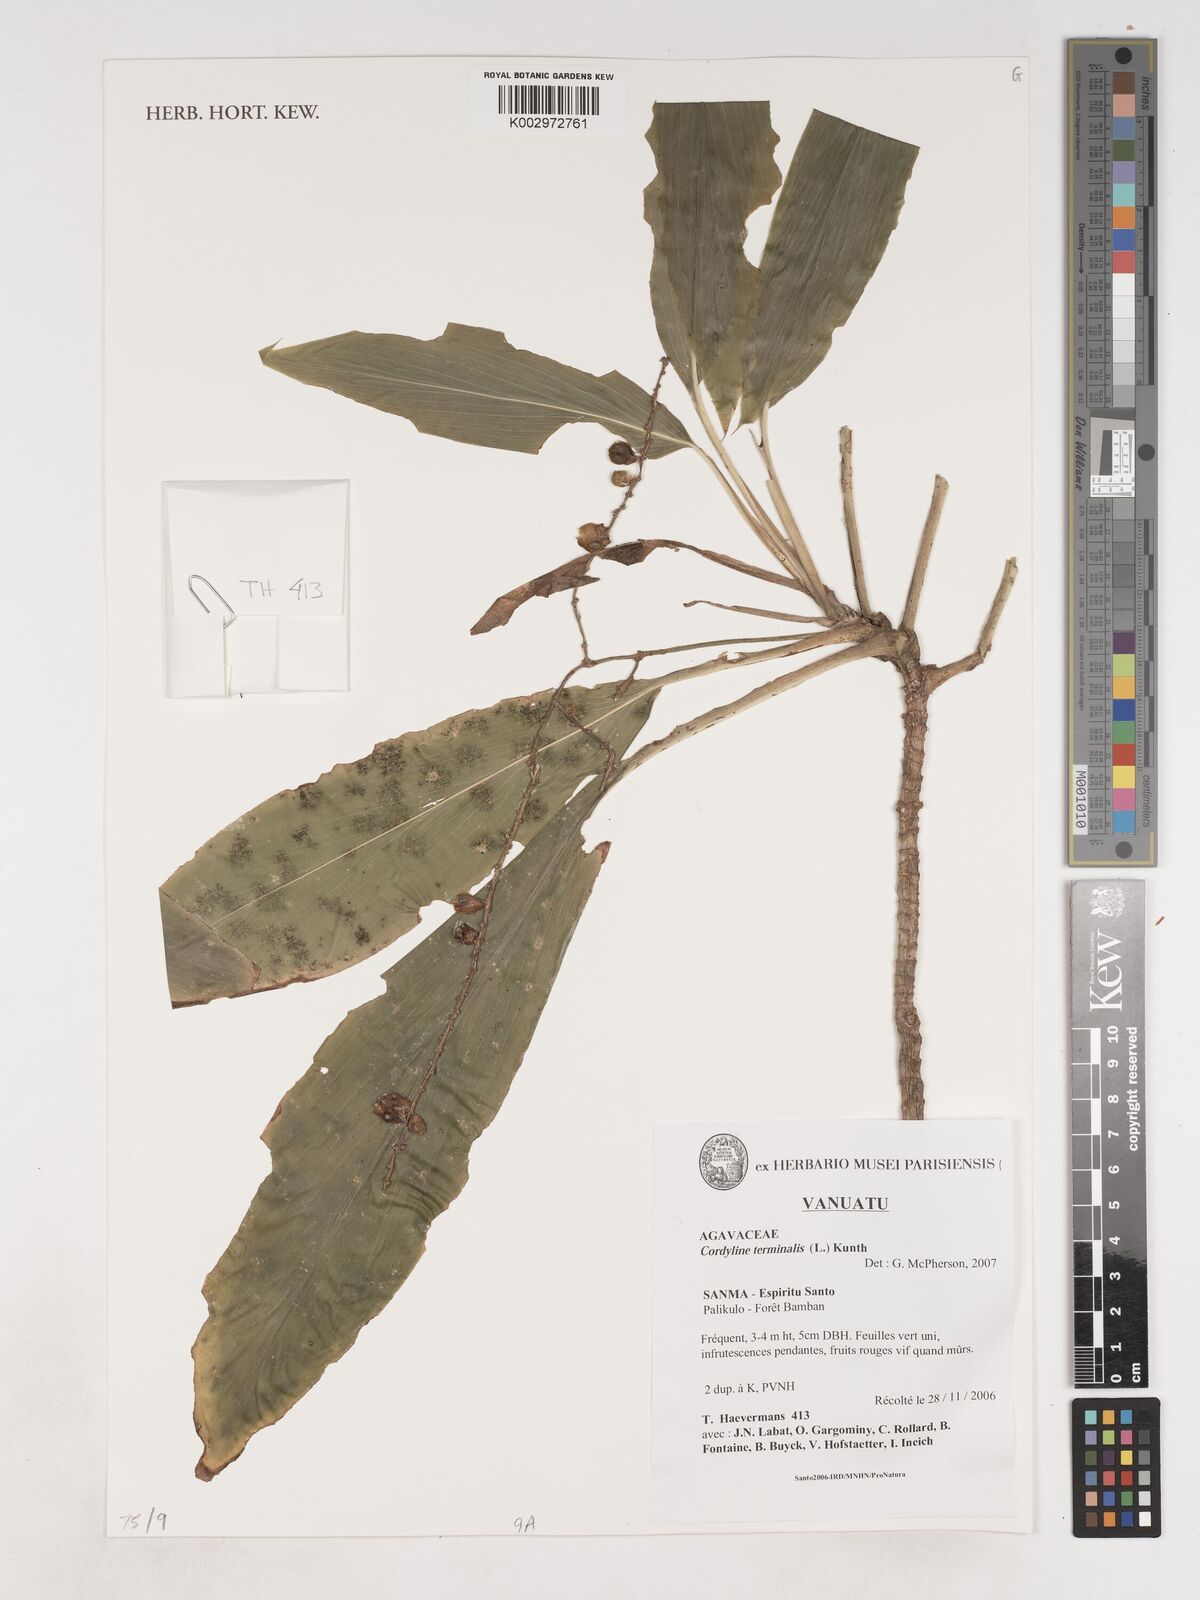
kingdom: Plantae
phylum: Tracheophyta
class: Liliopsida
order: Asparagales
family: Asparagaceae
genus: Cordyline
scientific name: Cordyline fruticosa
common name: Good-luck-plant
